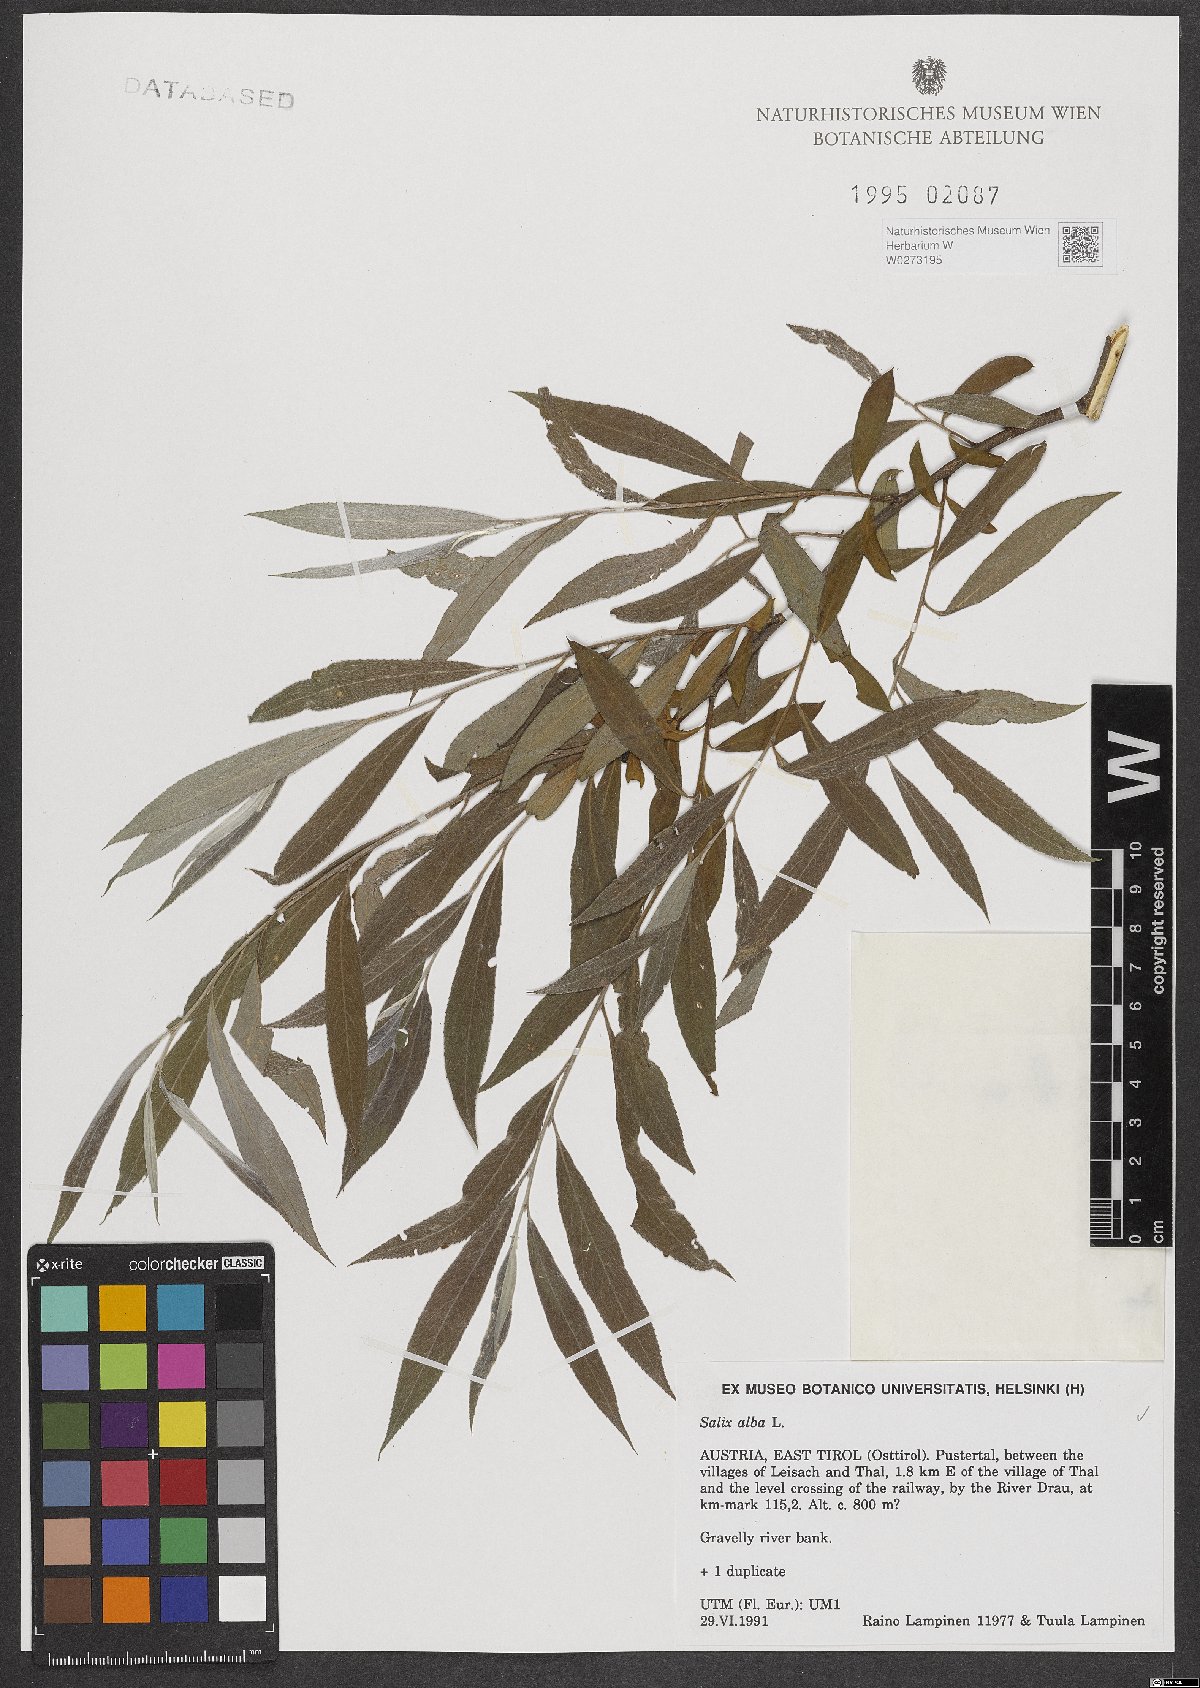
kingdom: Plantae
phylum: Tracheophyta
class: Magnoliopsida
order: Malpighiales
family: Salicaceae
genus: Salix
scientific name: Salix alba
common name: White willow
